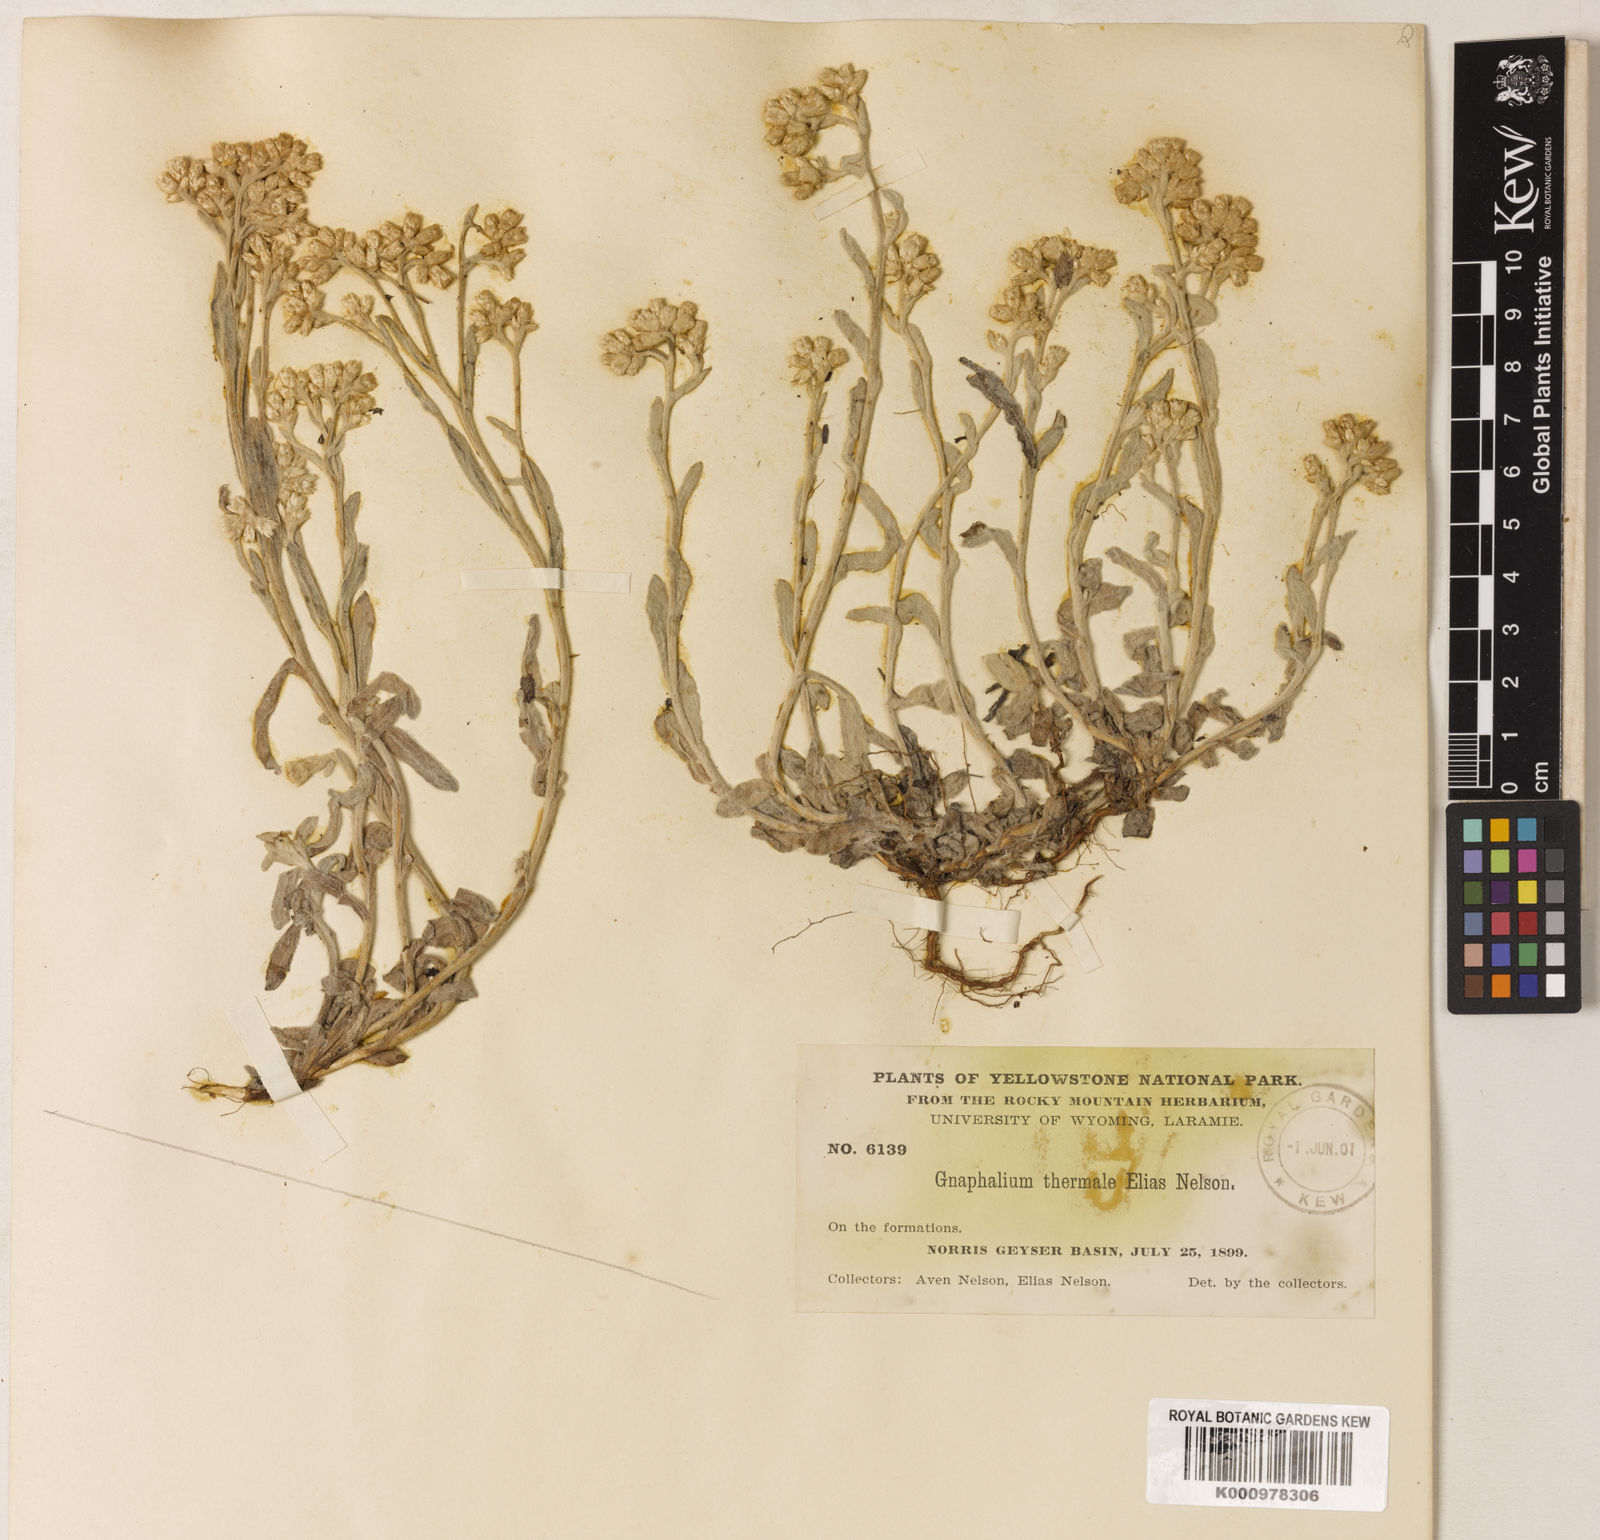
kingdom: Plantae
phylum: Tracheophyta
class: Magnoliopsida
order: Asterales
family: Asteraceae
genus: Pseudognaphalium
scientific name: Pseudognaphalium thermale
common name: Northwestern rabbit-tobacco
